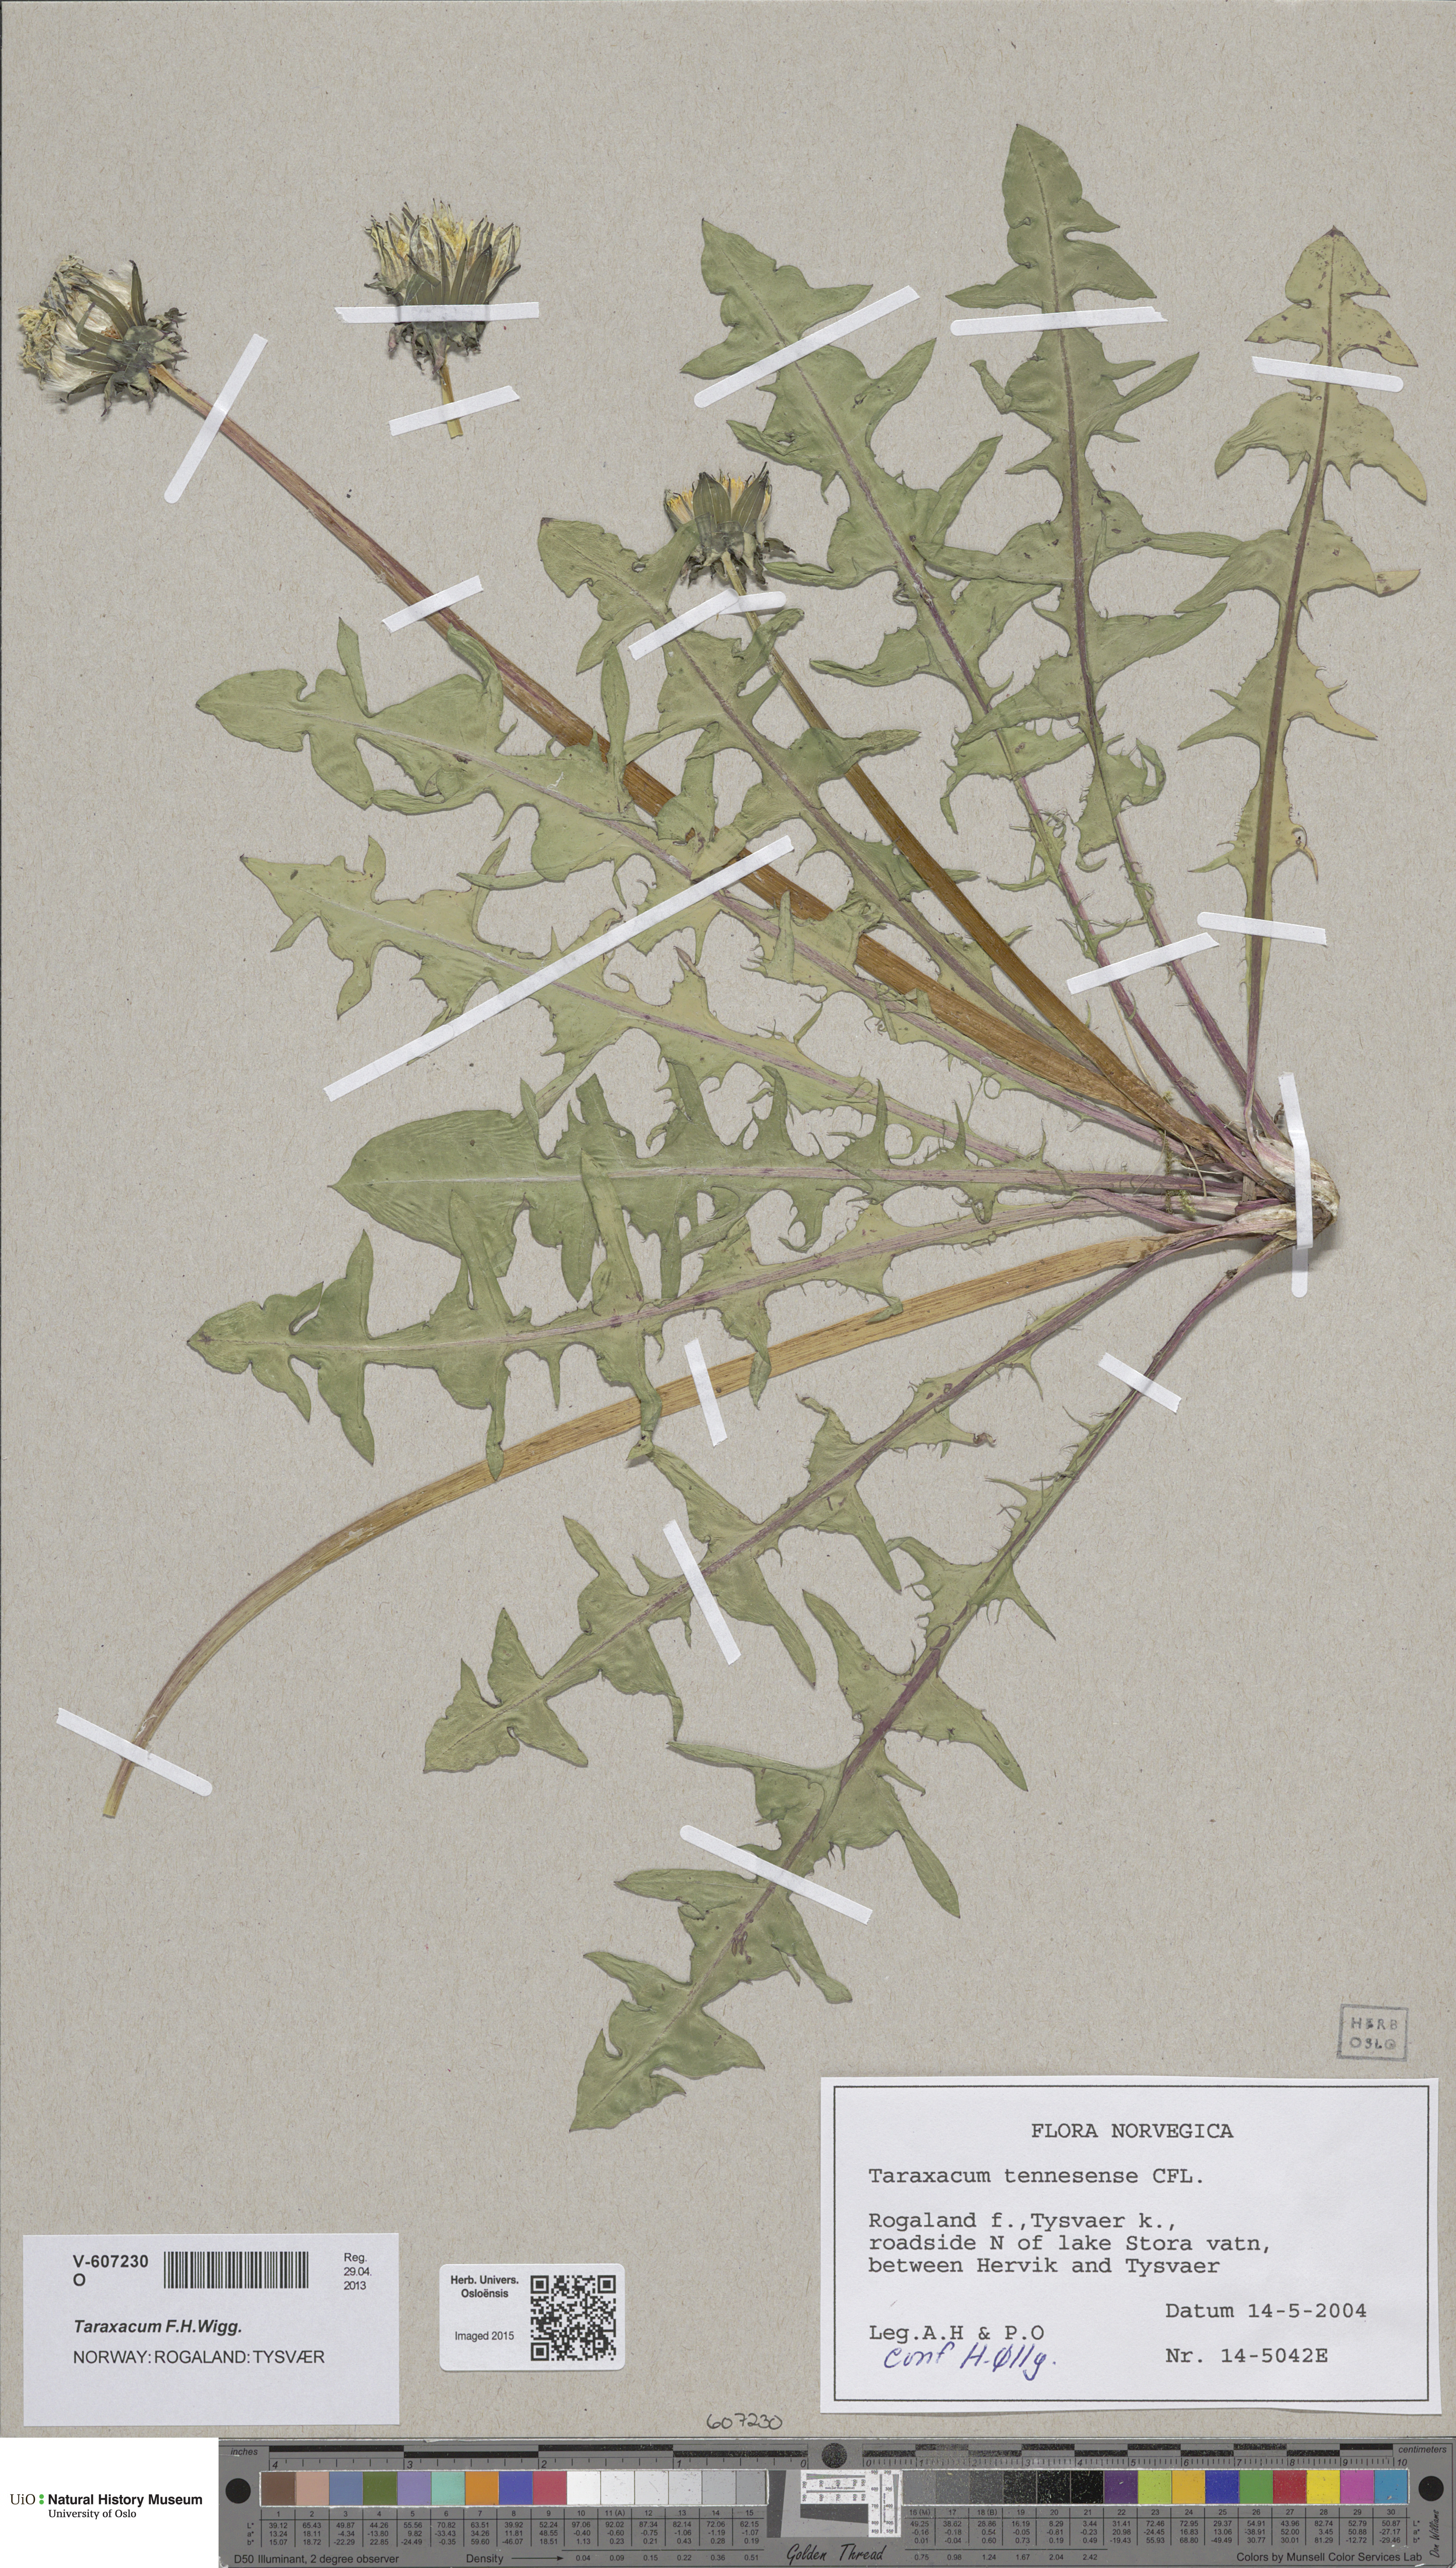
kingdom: Plantae
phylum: Tracheophyta
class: Magnoliopsida
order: Asterales
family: Asteraceae
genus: Taraxacum
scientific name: Taraxacum
